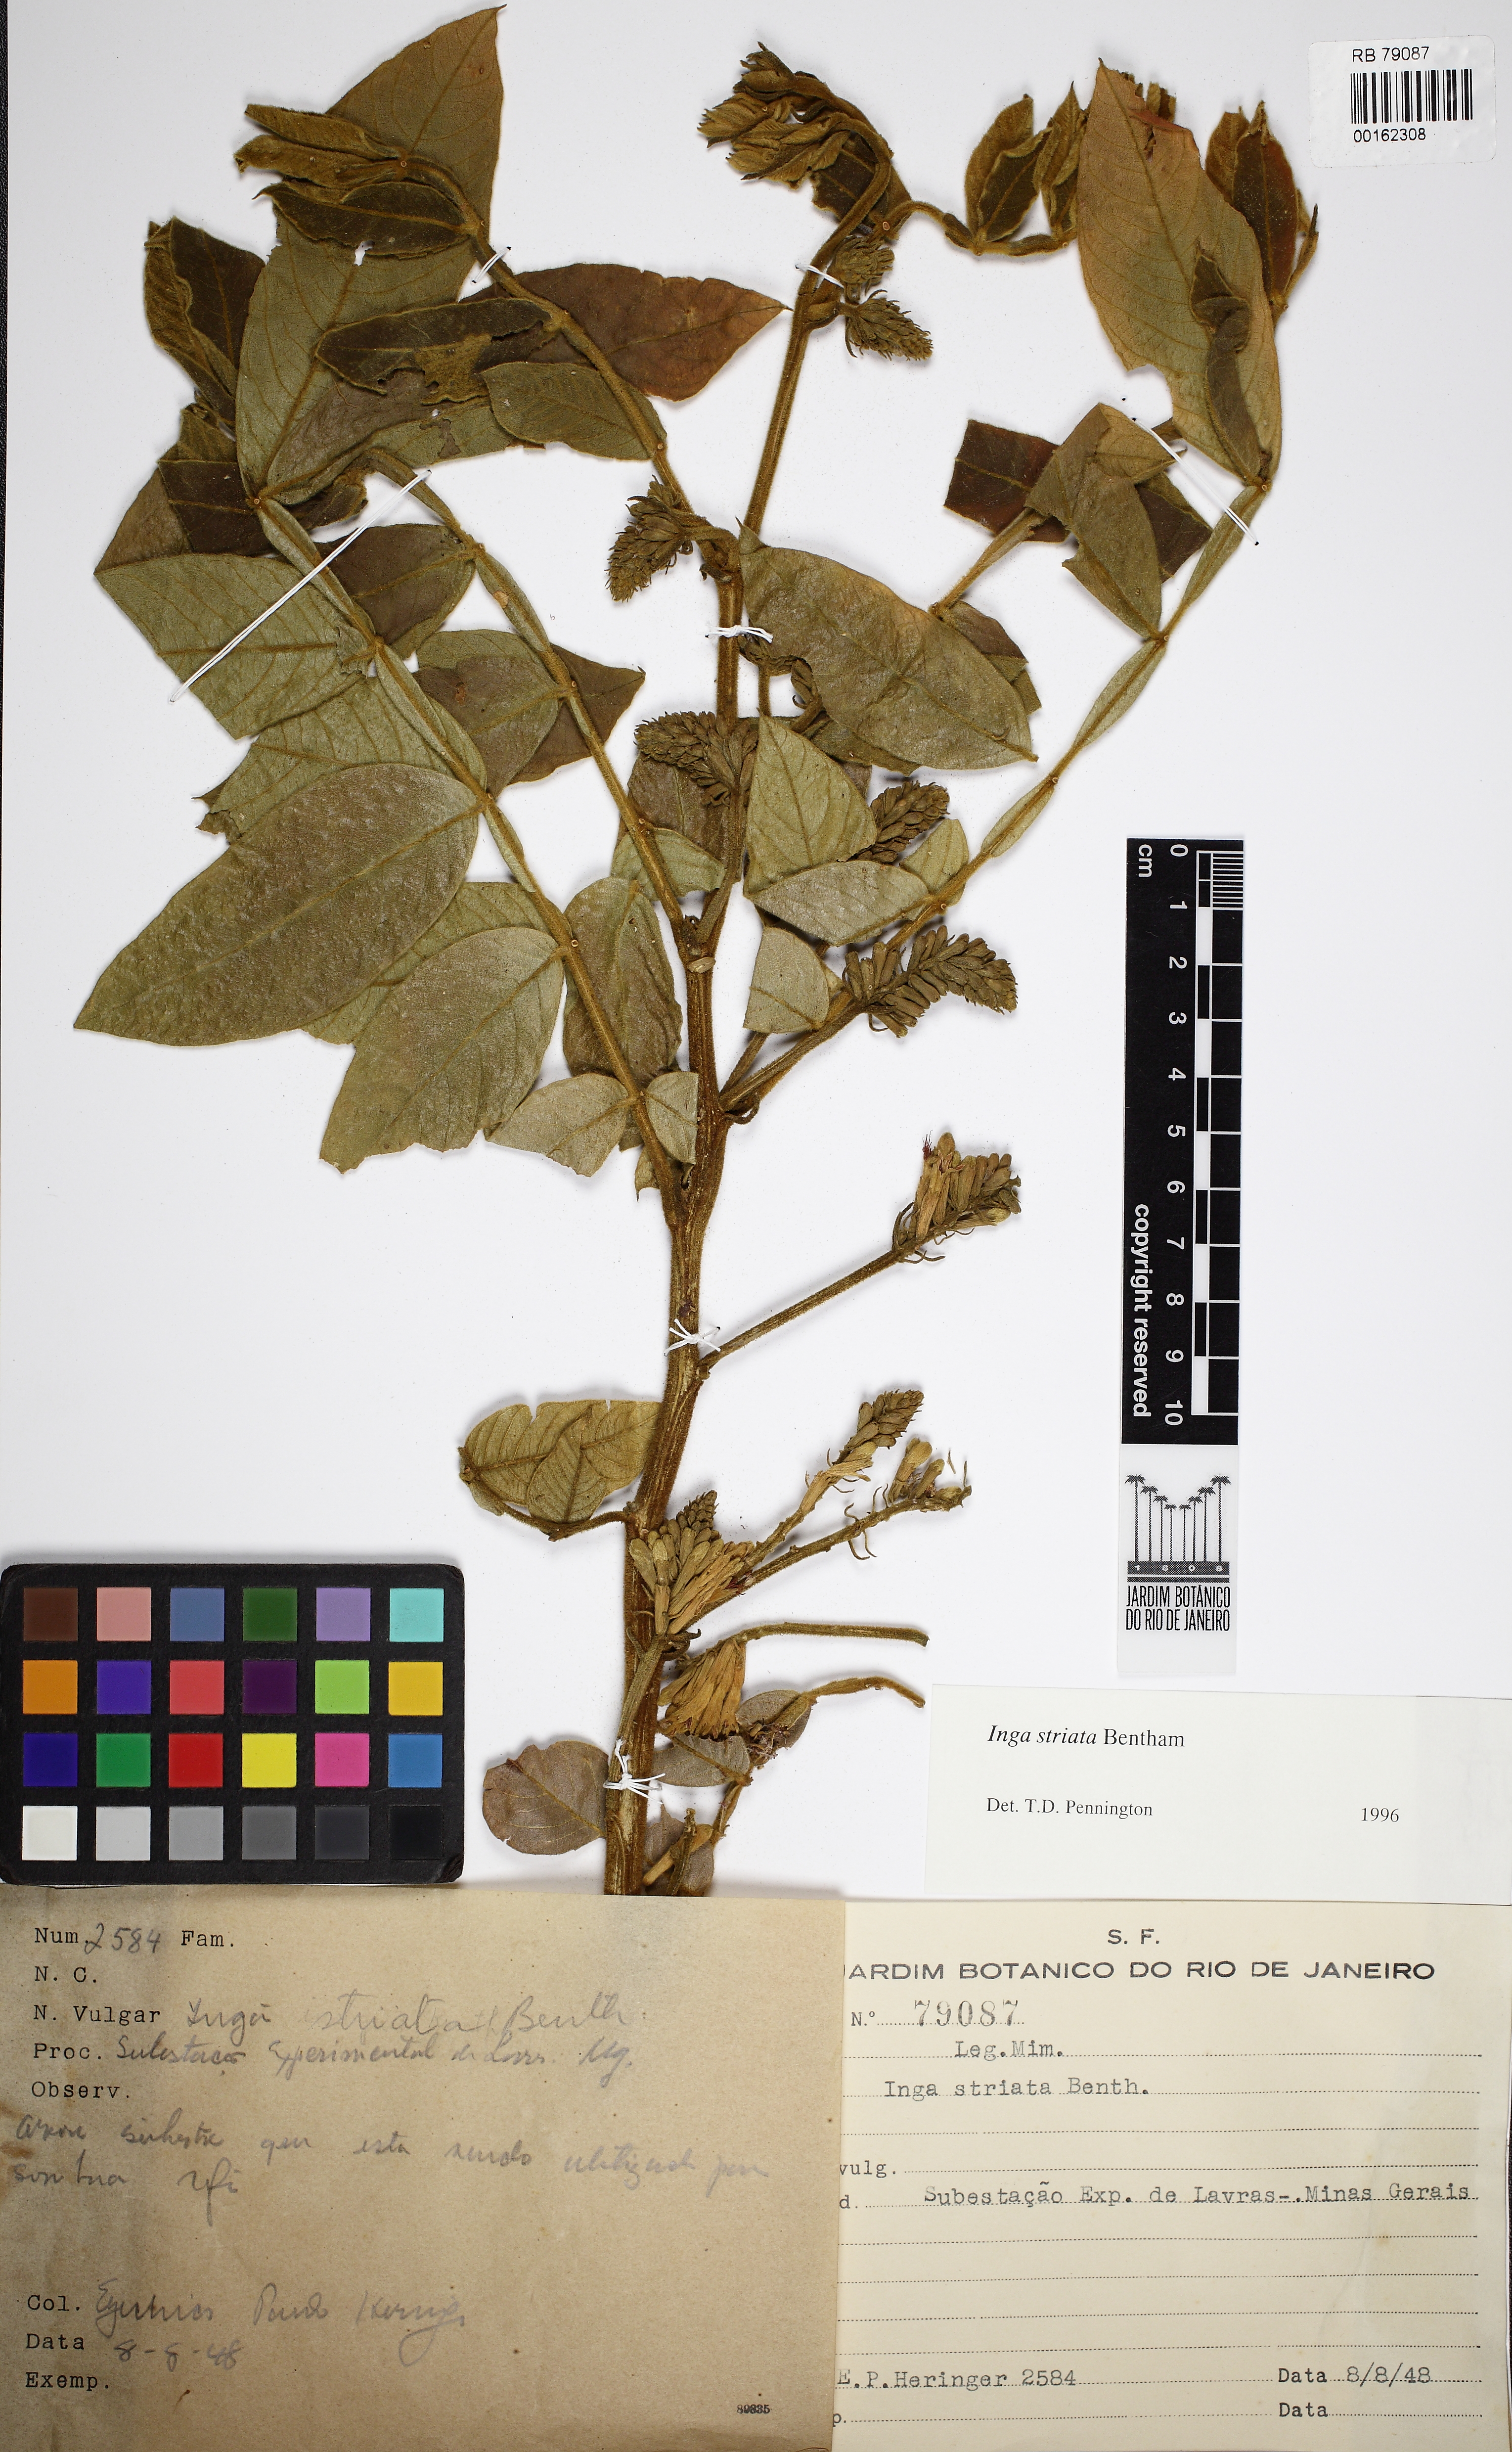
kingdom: Plantae
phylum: Tracheophyta
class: Magnoliopsida
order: Fabales
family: Fabaceae
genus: Inga
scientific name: Inga striata
